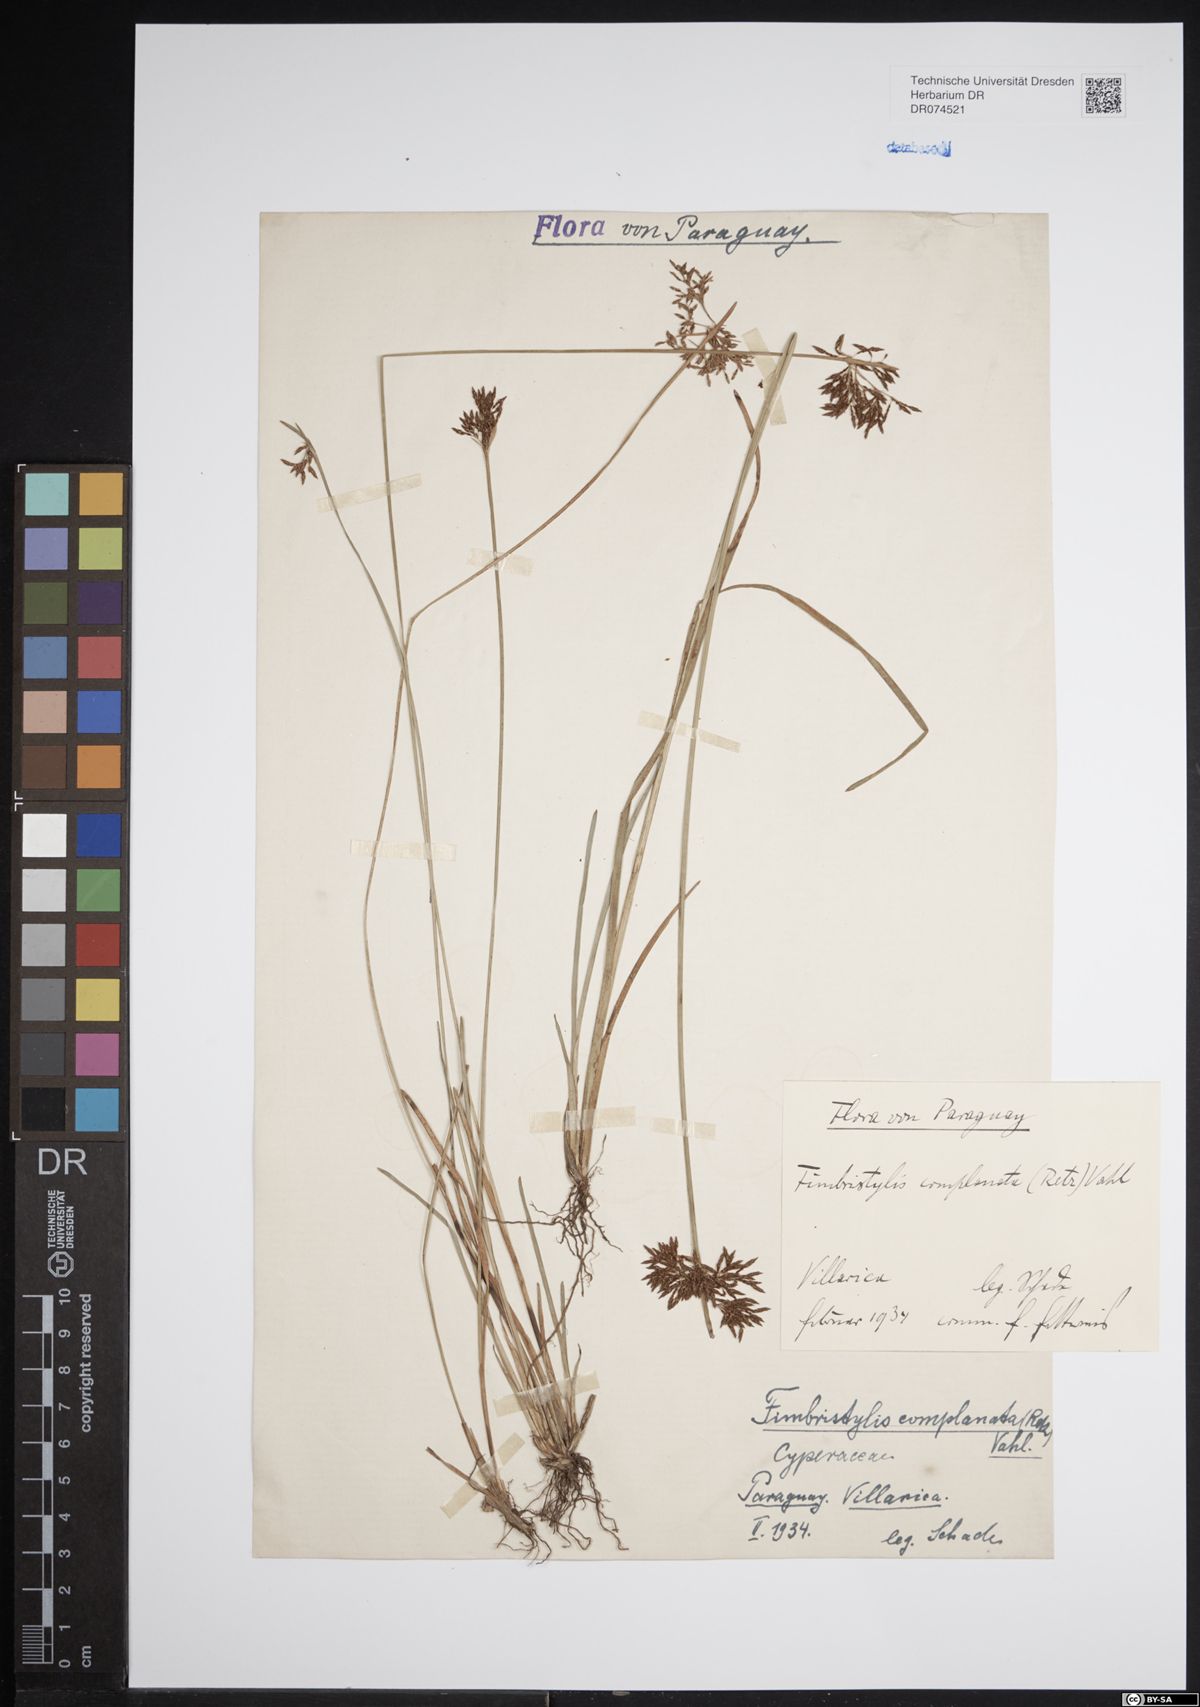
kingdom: Plantae
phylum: Tracheophyta
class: Liliopsida
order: Poales
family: Cyperaceae
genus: Fimbristylis
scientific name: Fimbristylis complanata
